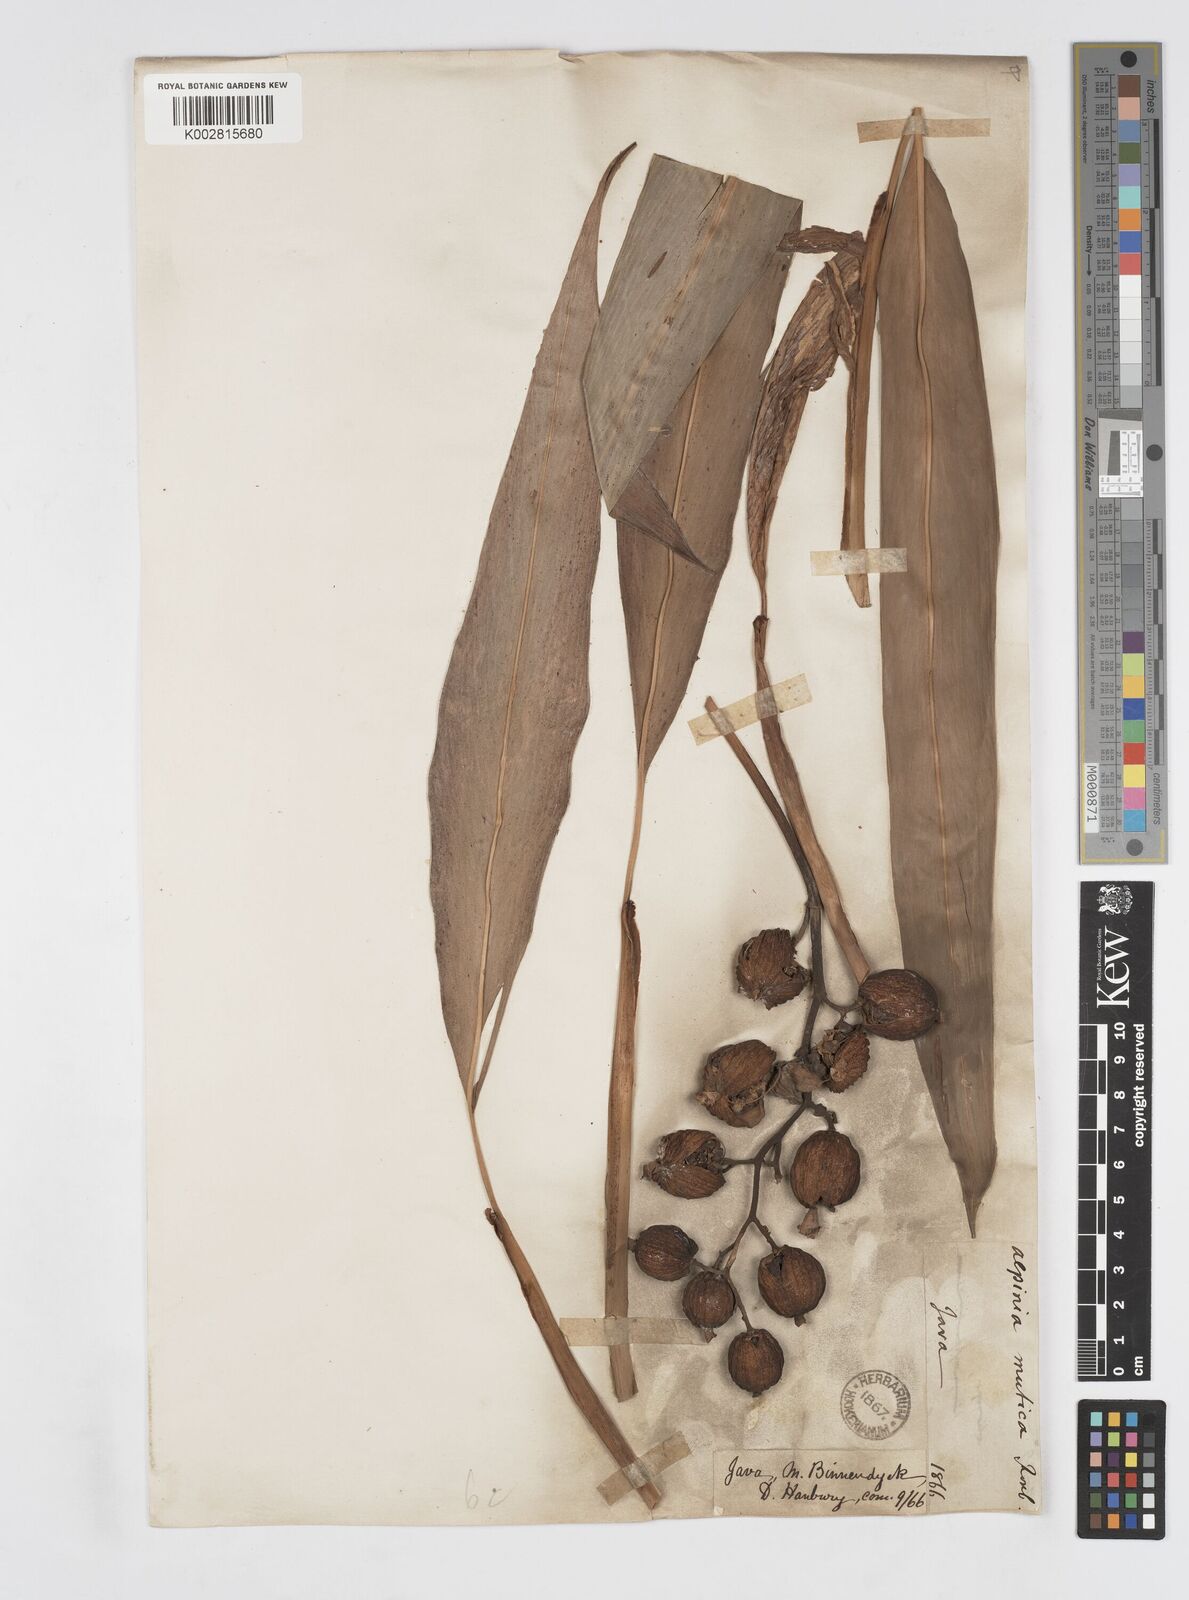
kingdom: Plantae
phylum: Tracheophyta
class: Liliopsida
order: Zingiberales
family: Zingiberaceae
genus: Alpinia
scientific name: Alpinia mutica
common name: Small shell ginger
